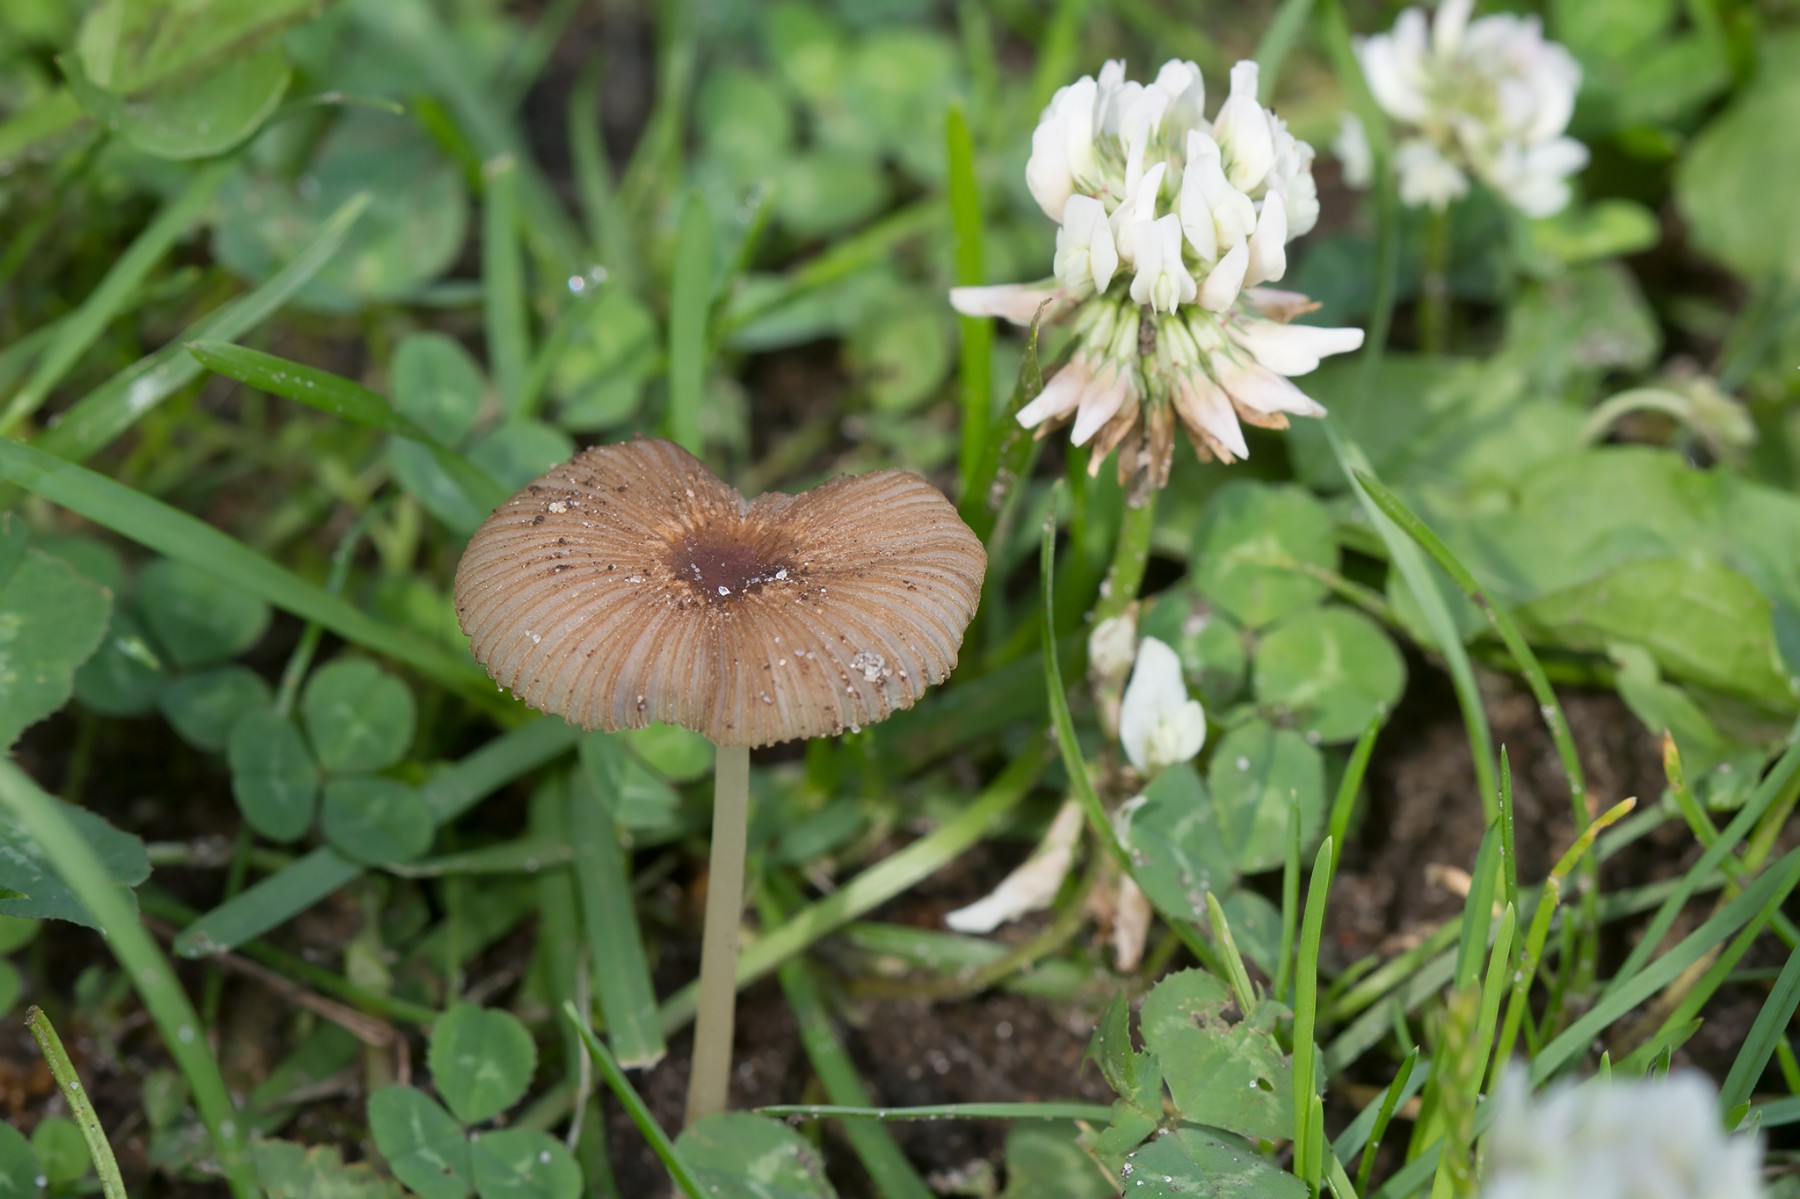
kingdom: Fungi
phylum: Basidiomycota
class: Agaricomycetes
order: Agaricales
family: Psathyrellaceae
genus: Parasola
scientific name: Parasola auricoma
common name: hansens hjulhat
